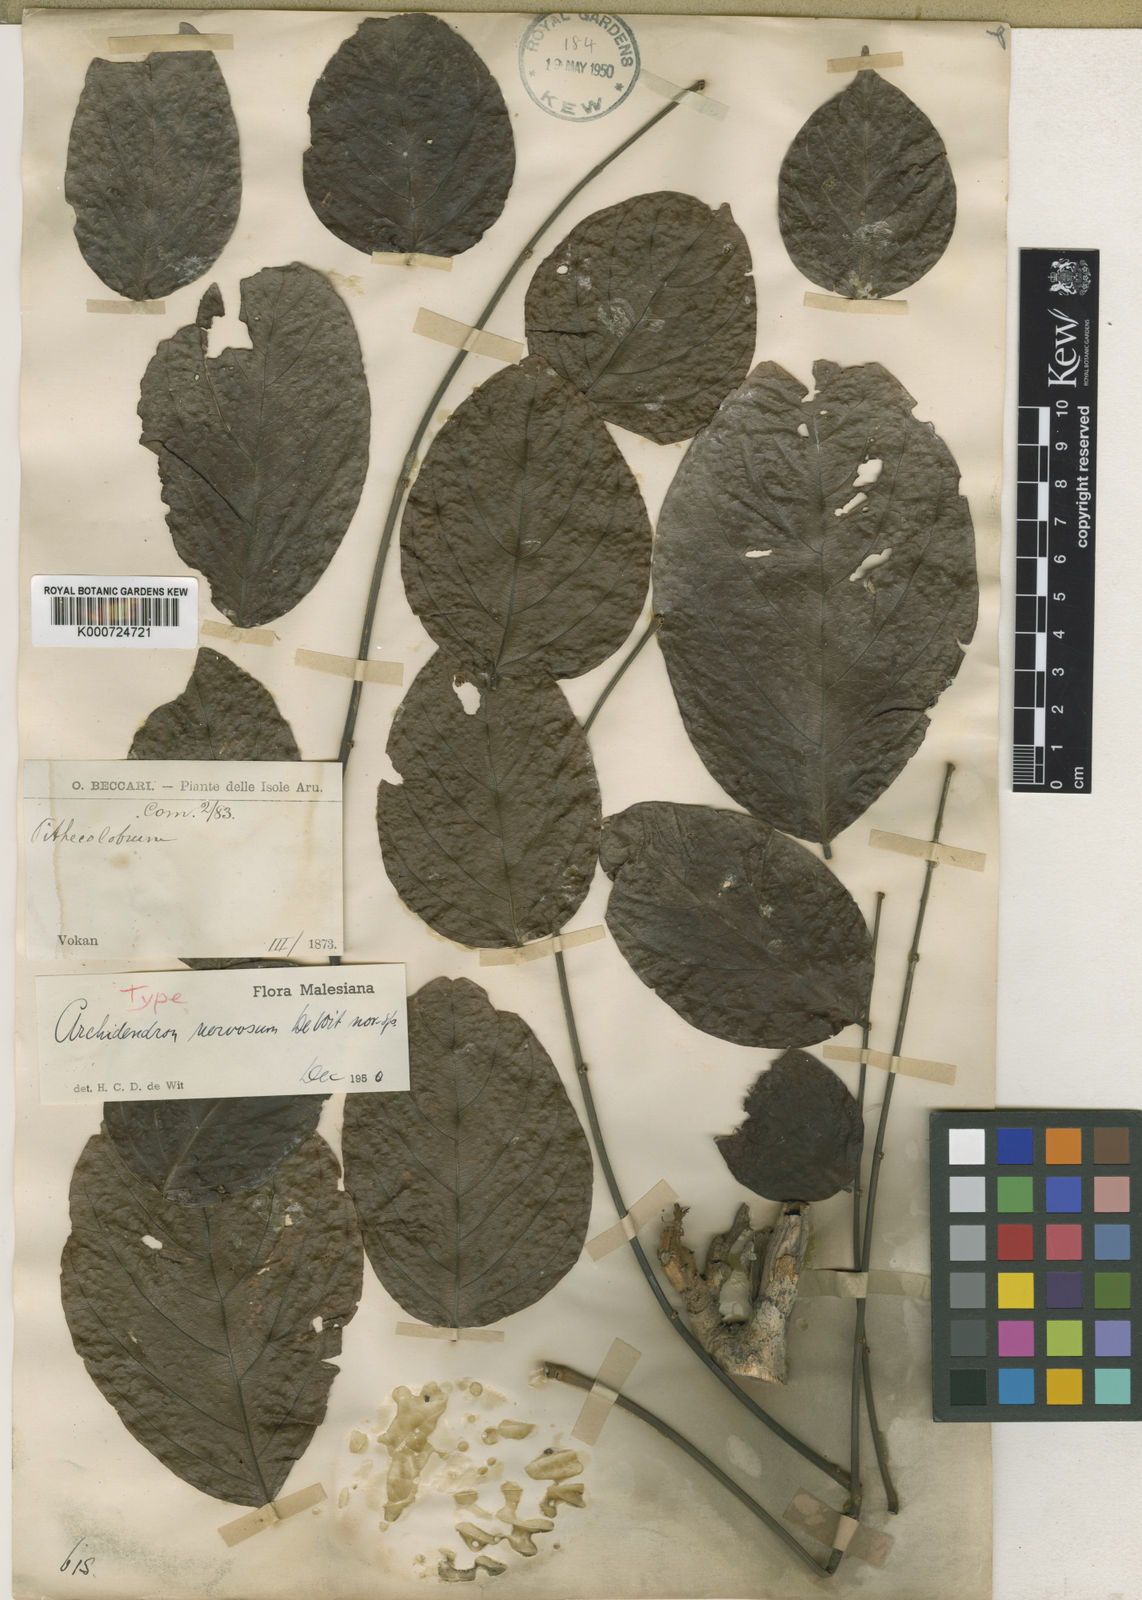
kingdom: Plantae
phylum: Tracheophyta
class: Magnoliopsida
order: Fabales
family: Fabaceae
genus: Archidendron
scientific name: Archidendron nervosum
